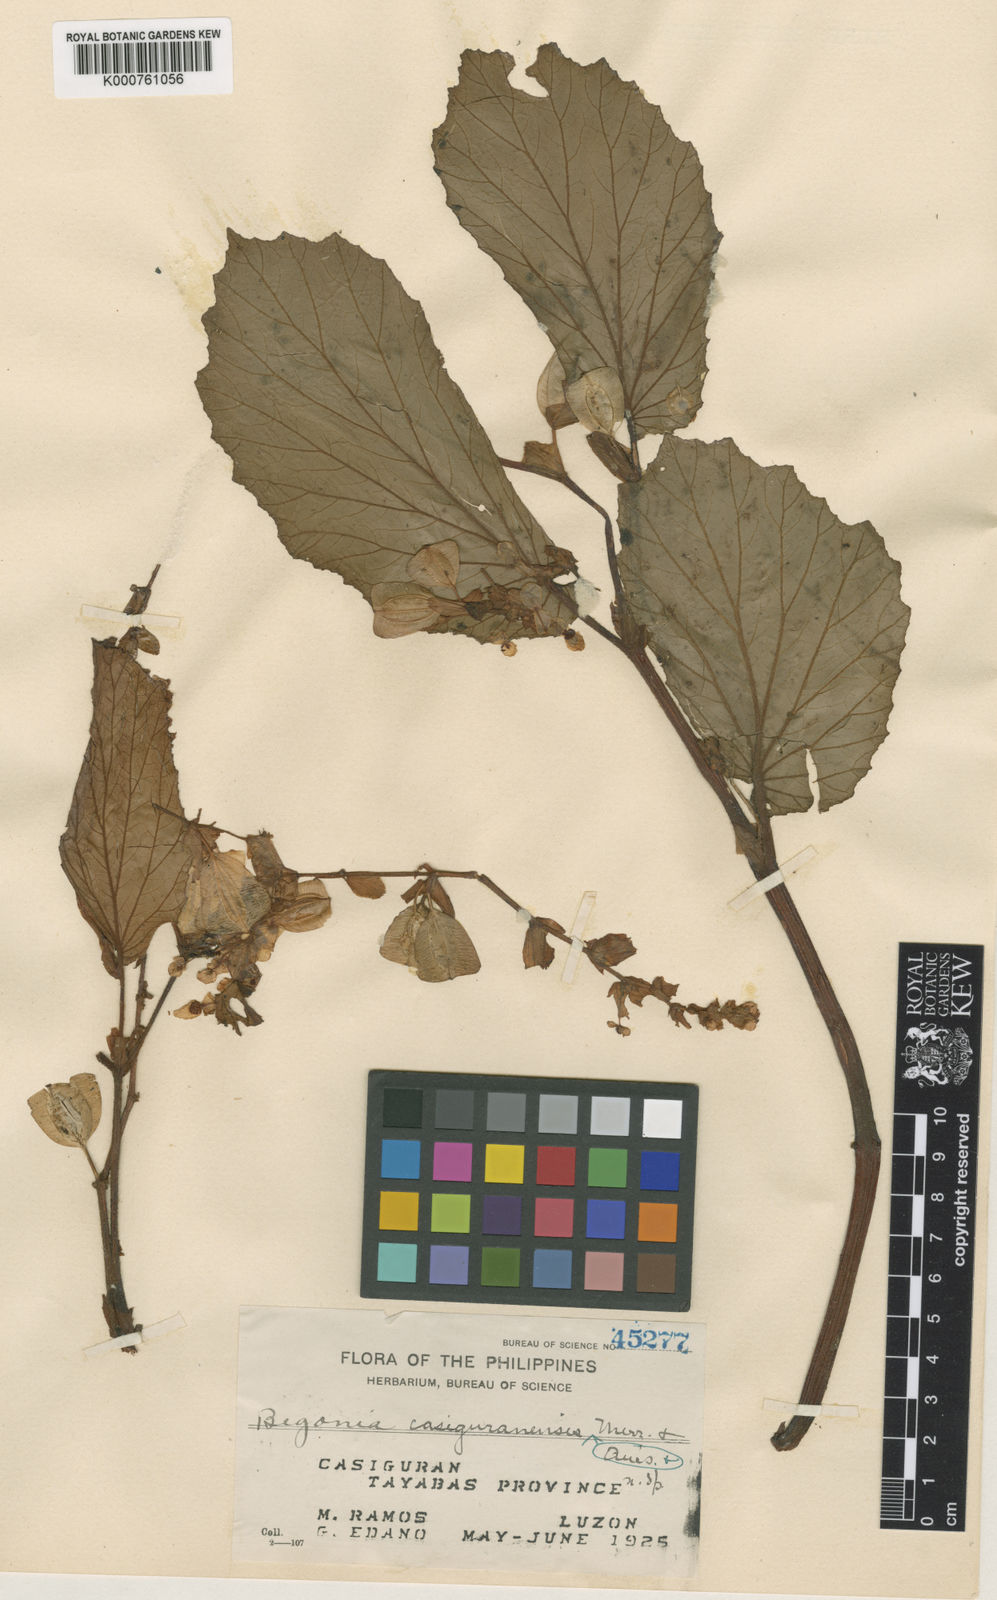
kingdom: Plantae
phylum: Tracheophyta
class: Magnoliopsida
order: Cucurbitales
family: Begoniaceae
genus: Begonia
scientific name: Begonia casiguranensis
